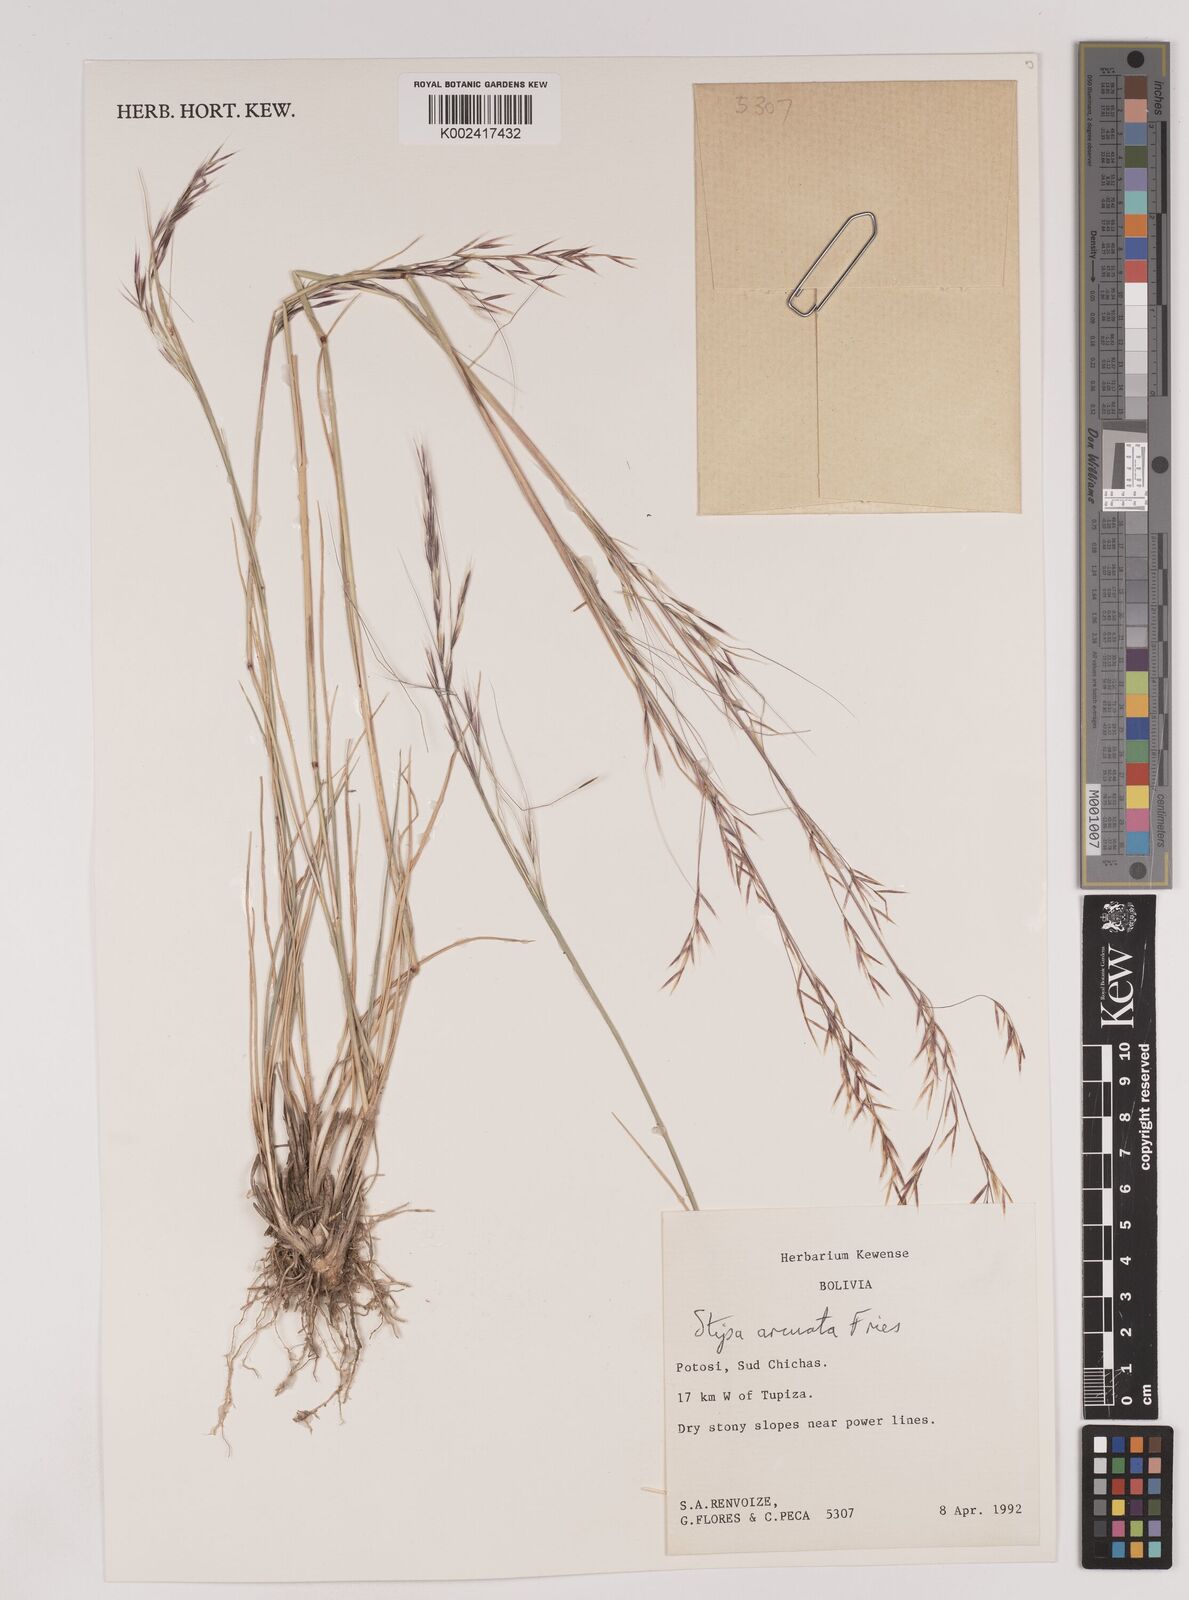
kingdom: Plantae
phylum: Tracheophyta
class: Liliopsida
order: Poales
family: Poaceae
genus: Nassella
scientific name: Nassella arcuata
